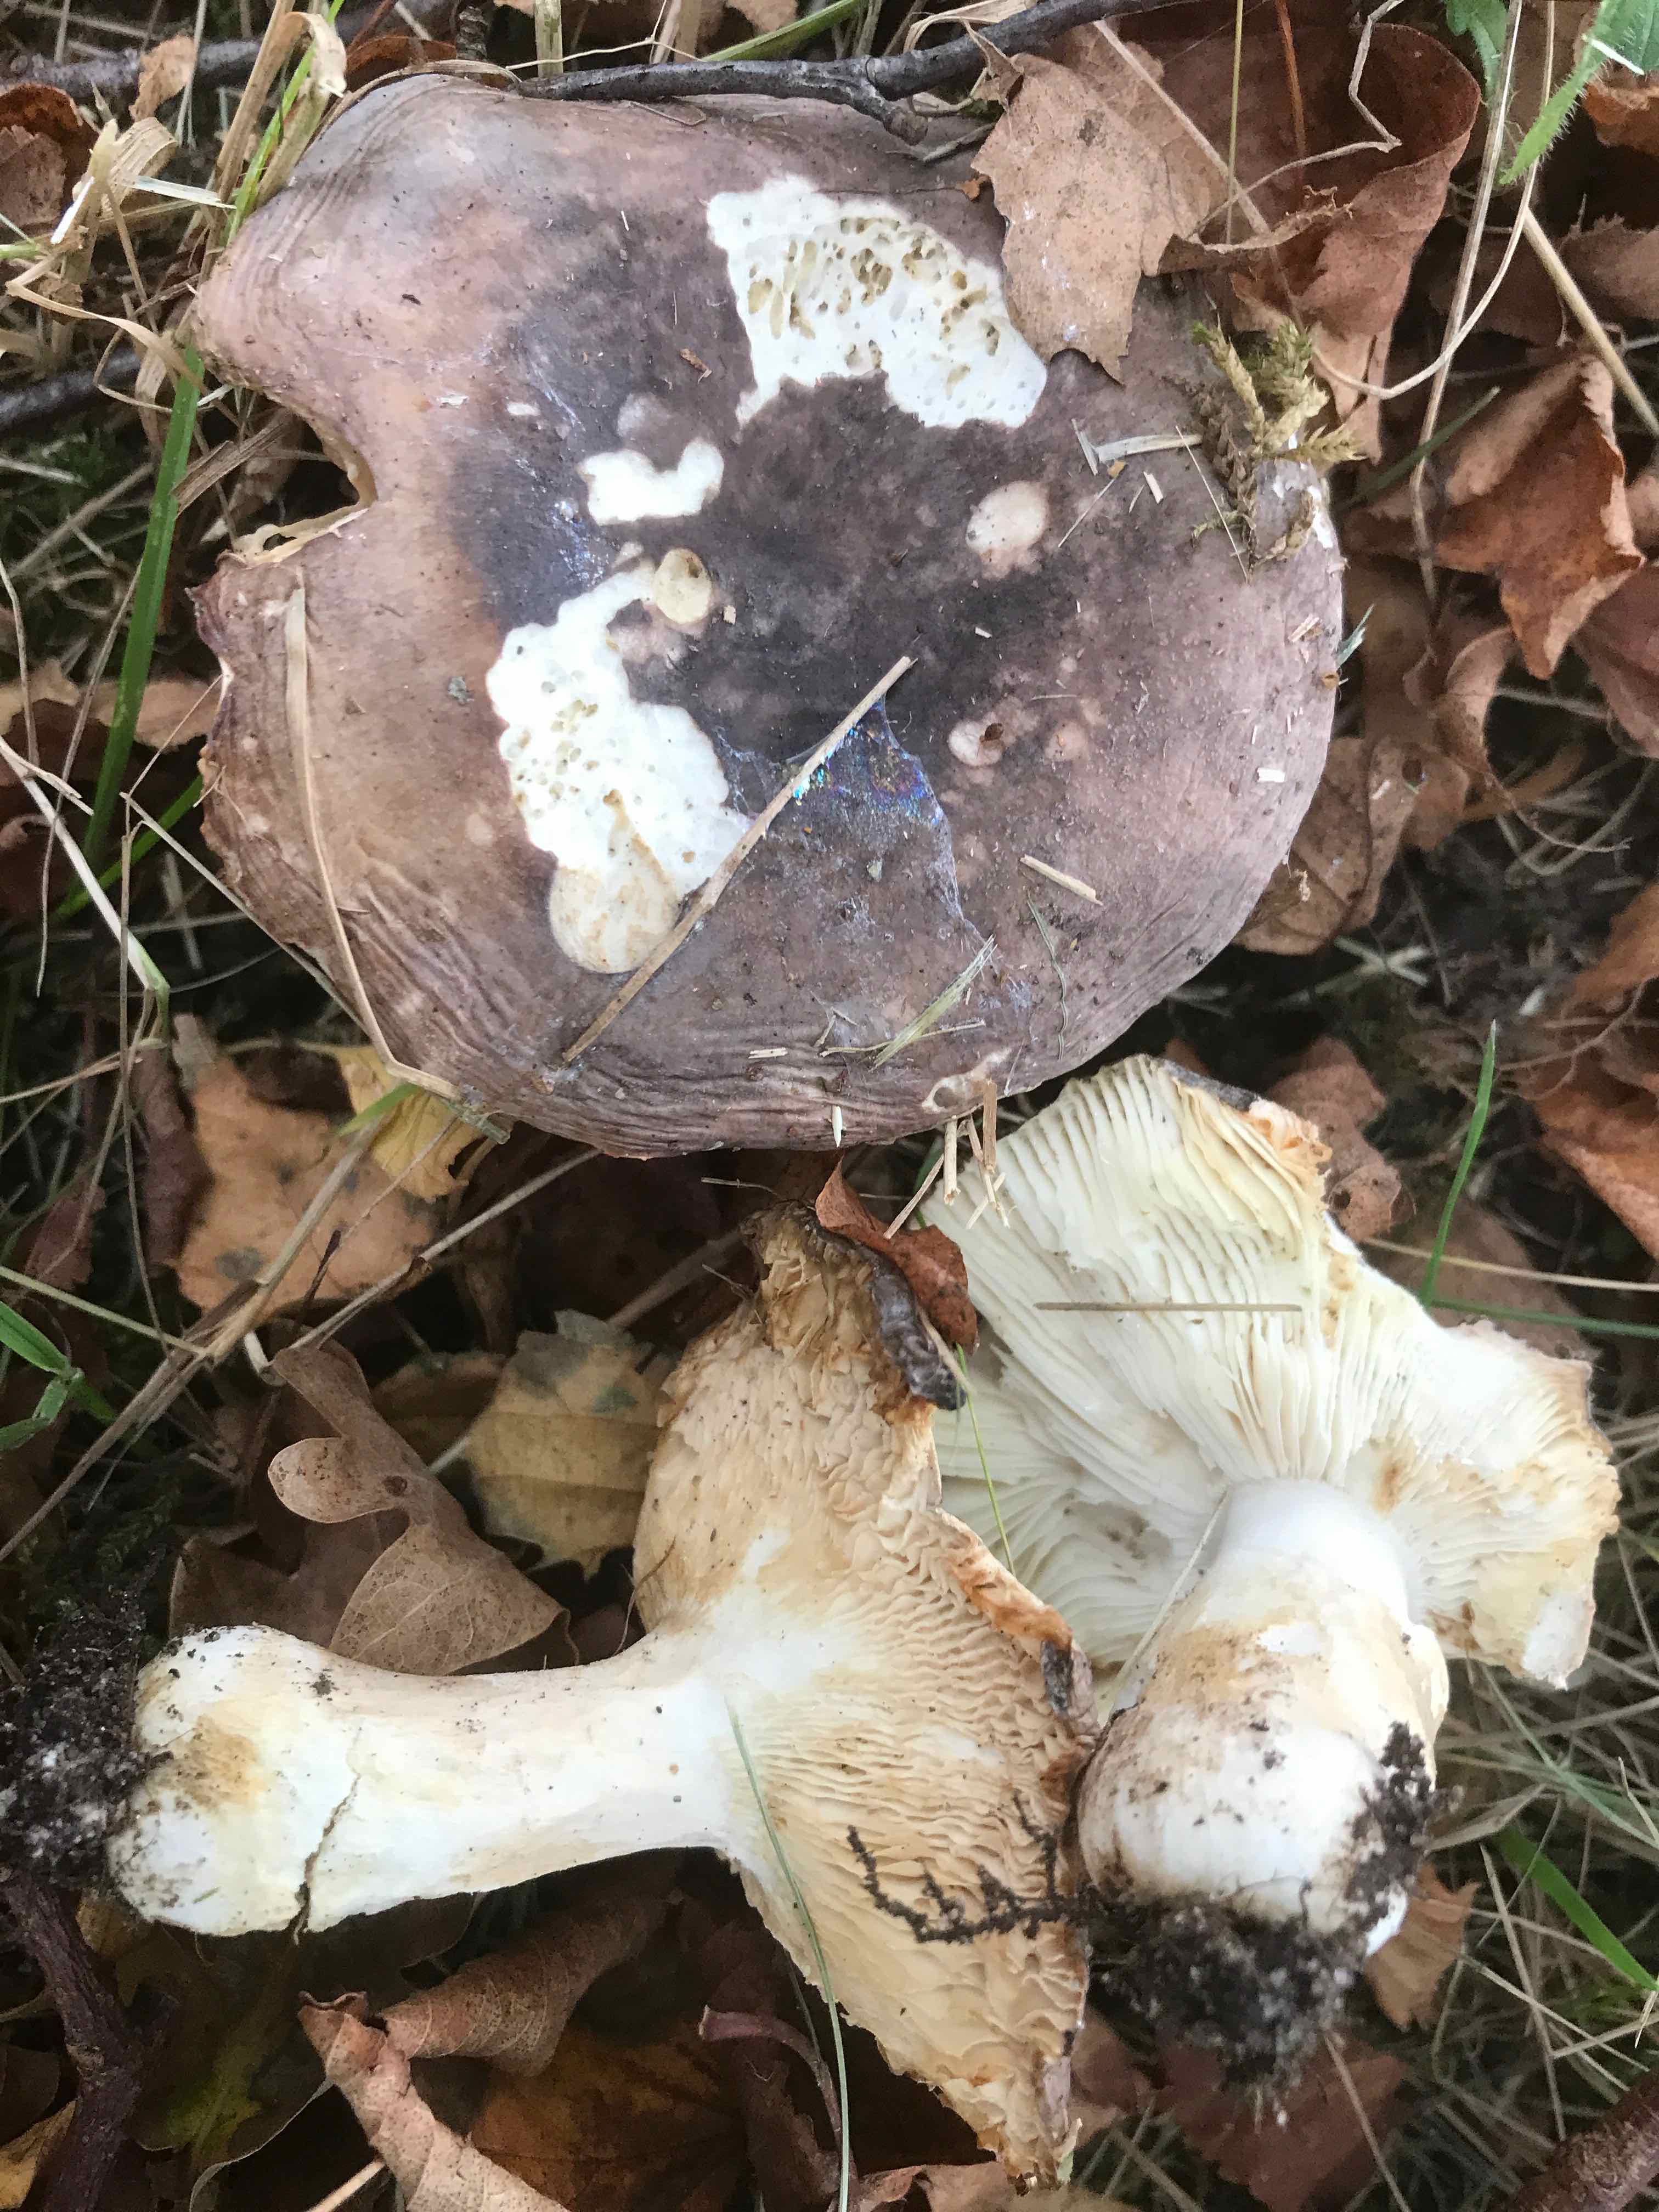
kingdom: Fungi
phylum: Basidiomycota
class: Agaricomycetes
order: Russulales
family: Russulaceae
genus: Russula
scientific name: Russula cyanoxantha
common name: broget skørhat
